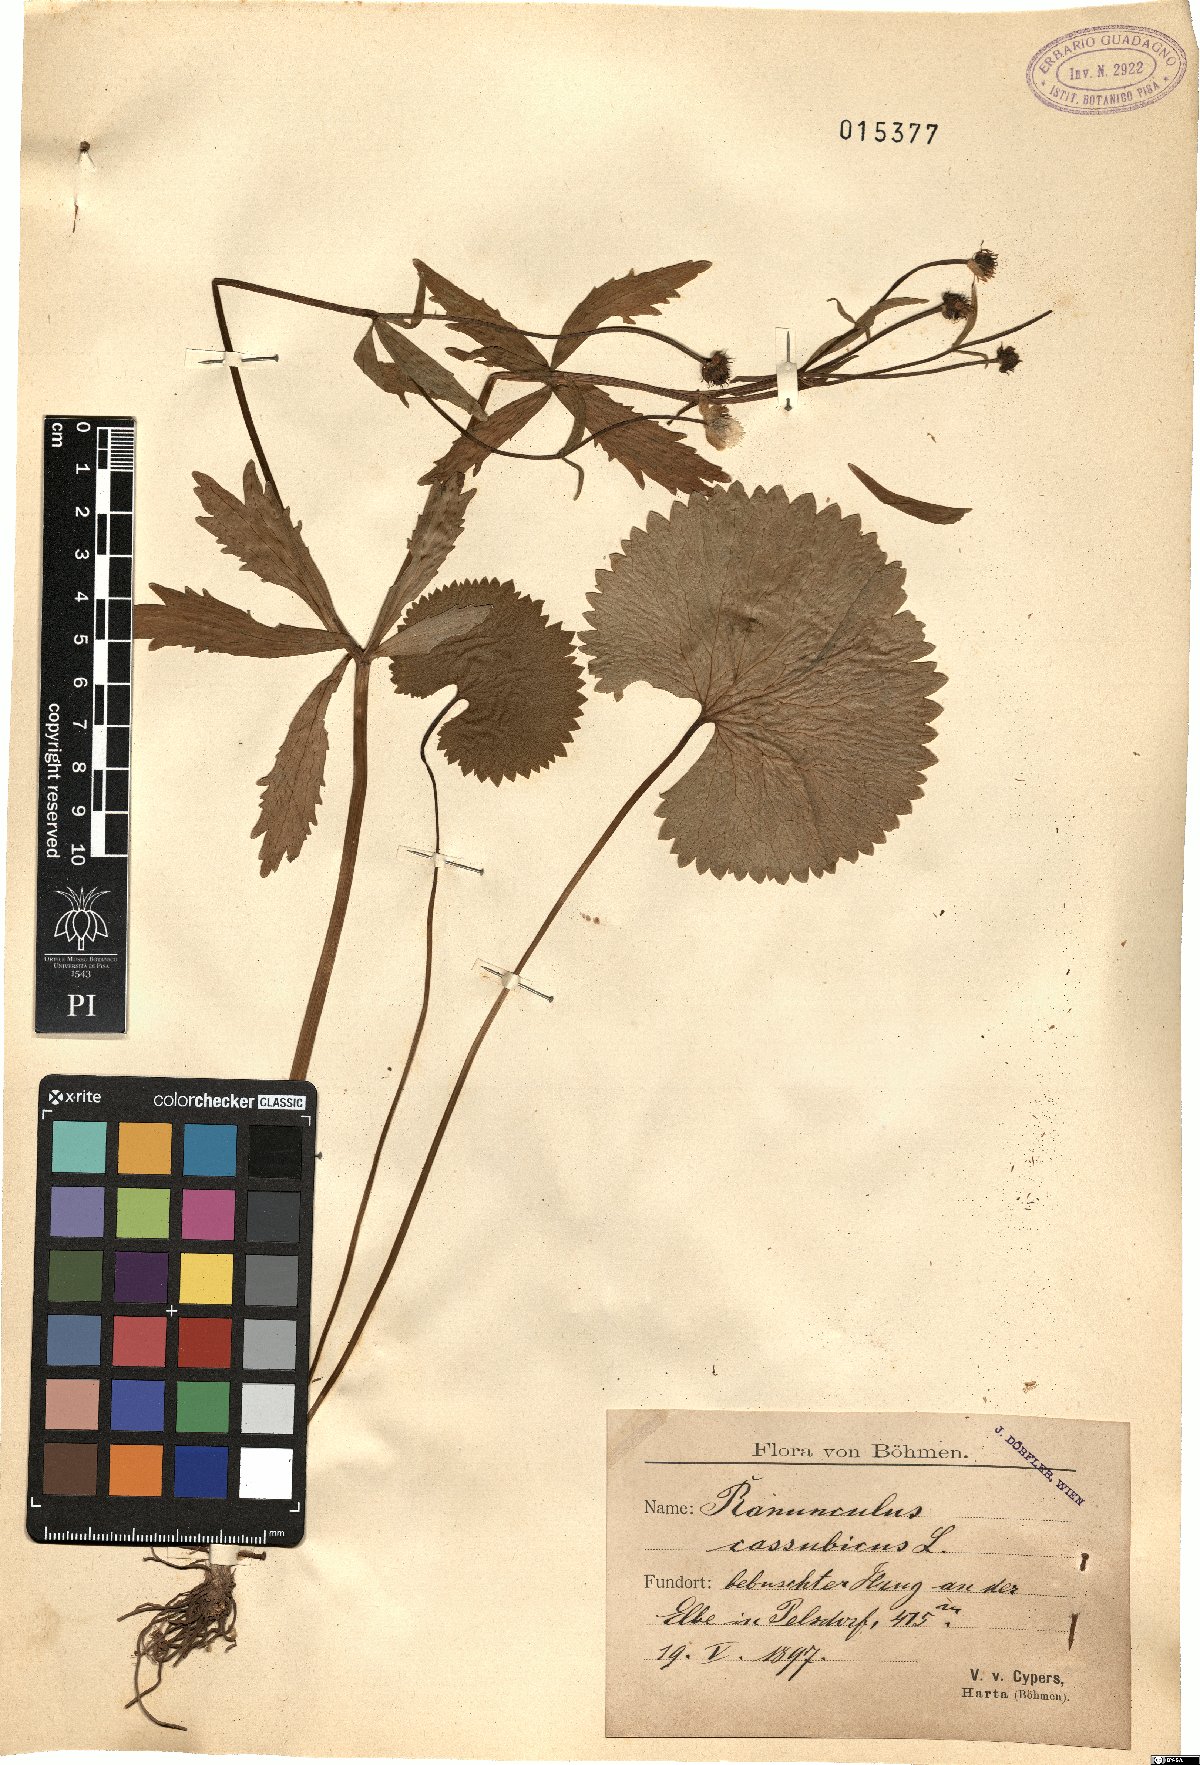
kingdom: Plantae
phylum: Tracheophyta
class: Magnoliopsida
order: Ranunculales
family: Ranunculaceae
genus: Ranunculus
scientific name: Ranunculus cassubicus
